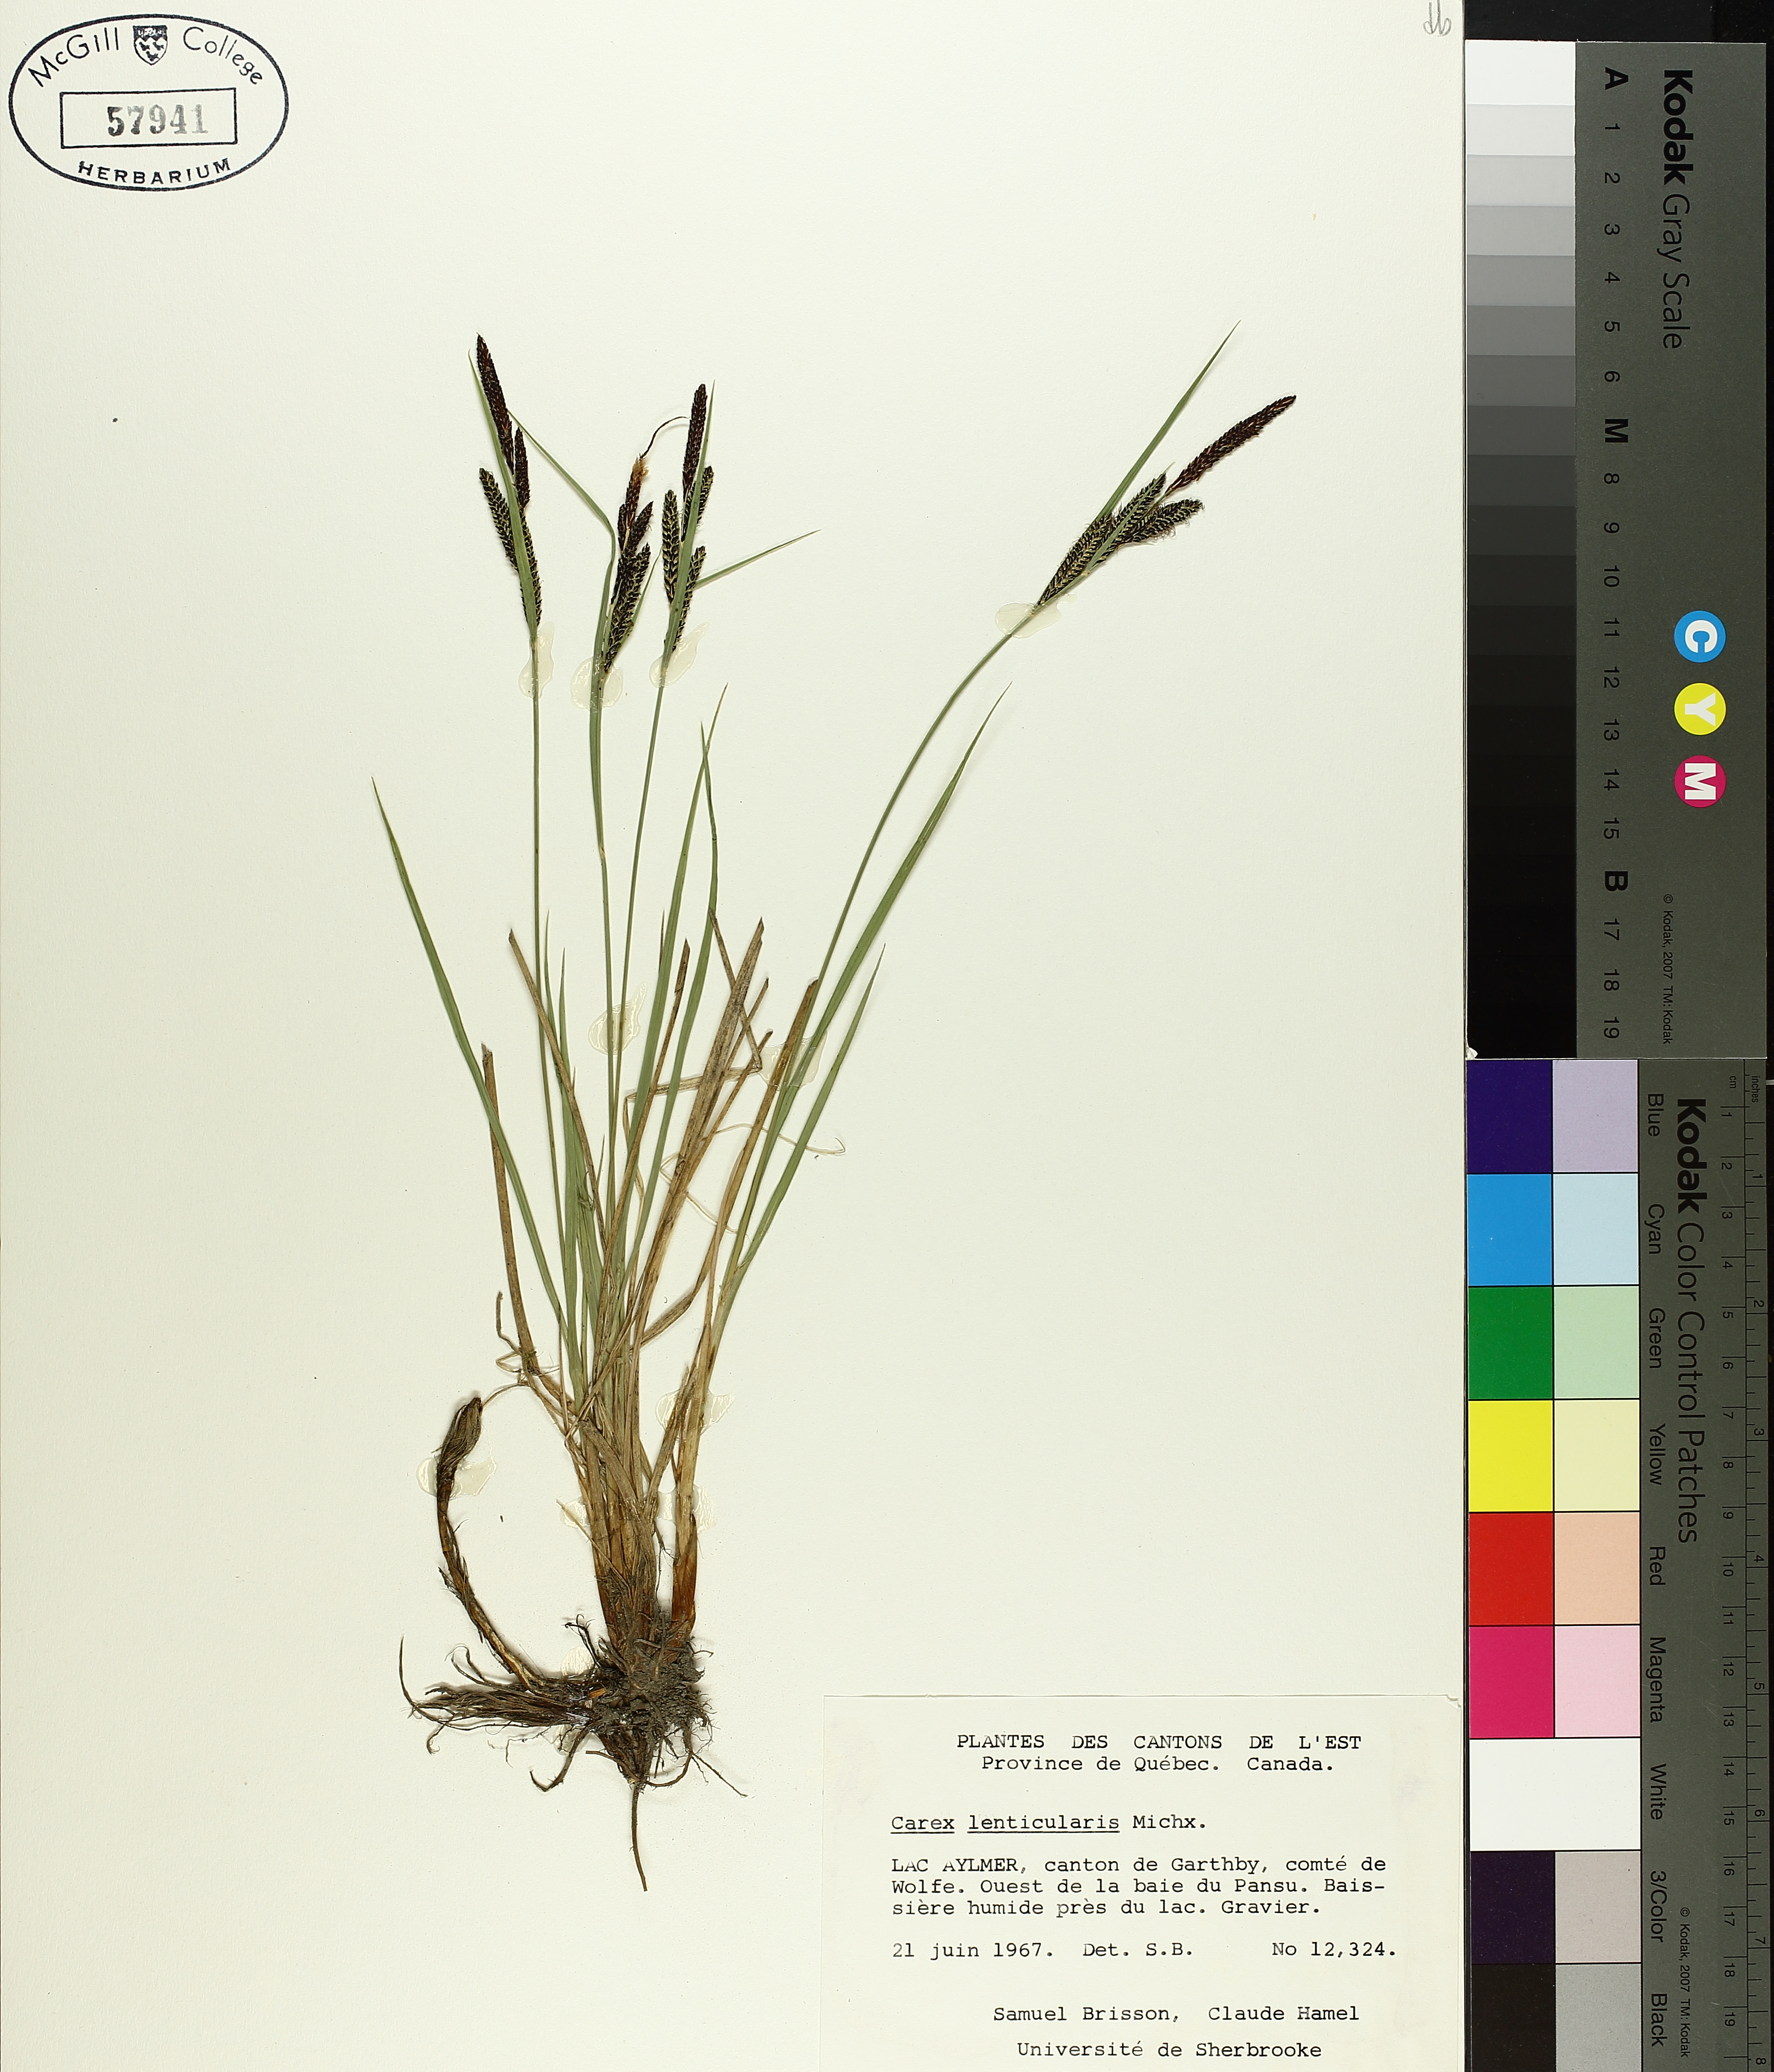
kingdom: Plantae
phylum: Tracheophyta
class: Liliopsida
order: Poales
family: Cyperaceae
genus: Carex
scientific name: Carex lenticularis
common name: Lakeshore sedge
